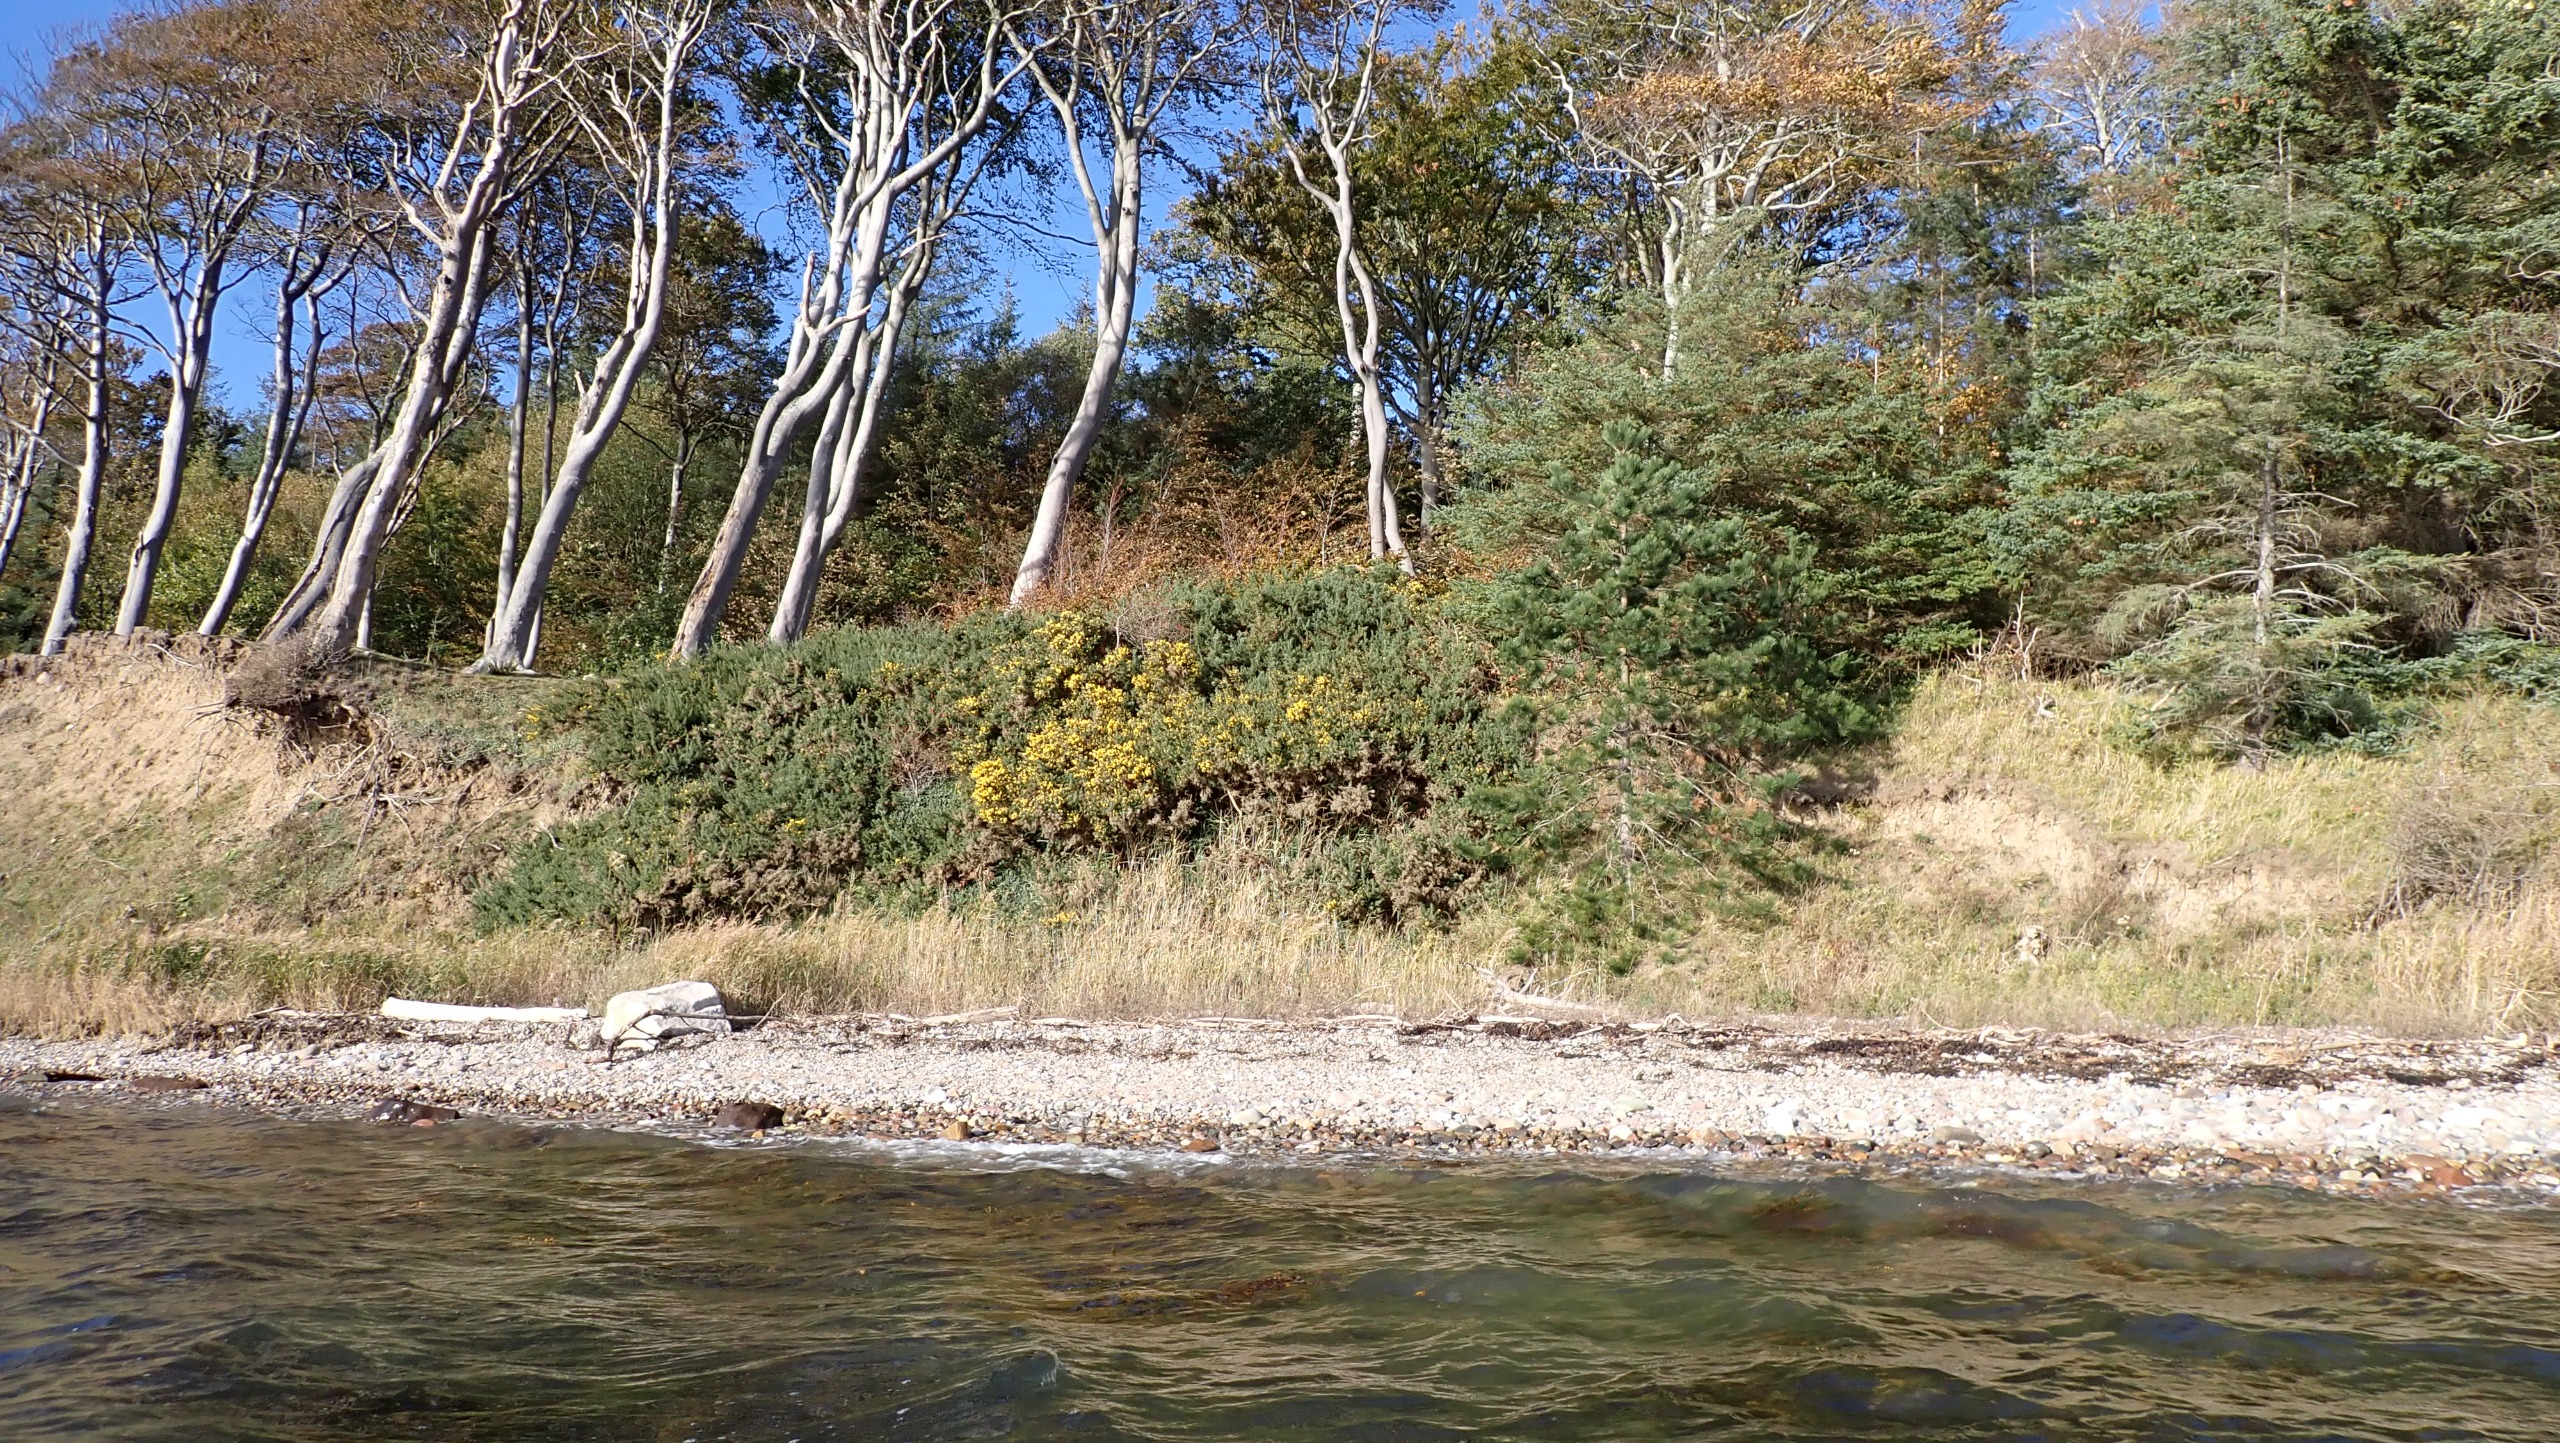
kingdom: Plantae
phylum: Tracheophyta
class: Magnoliopsida
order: Fabales
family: Fabaceae
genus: Ulex
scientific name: Ulex europaeus
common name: Tornblad
